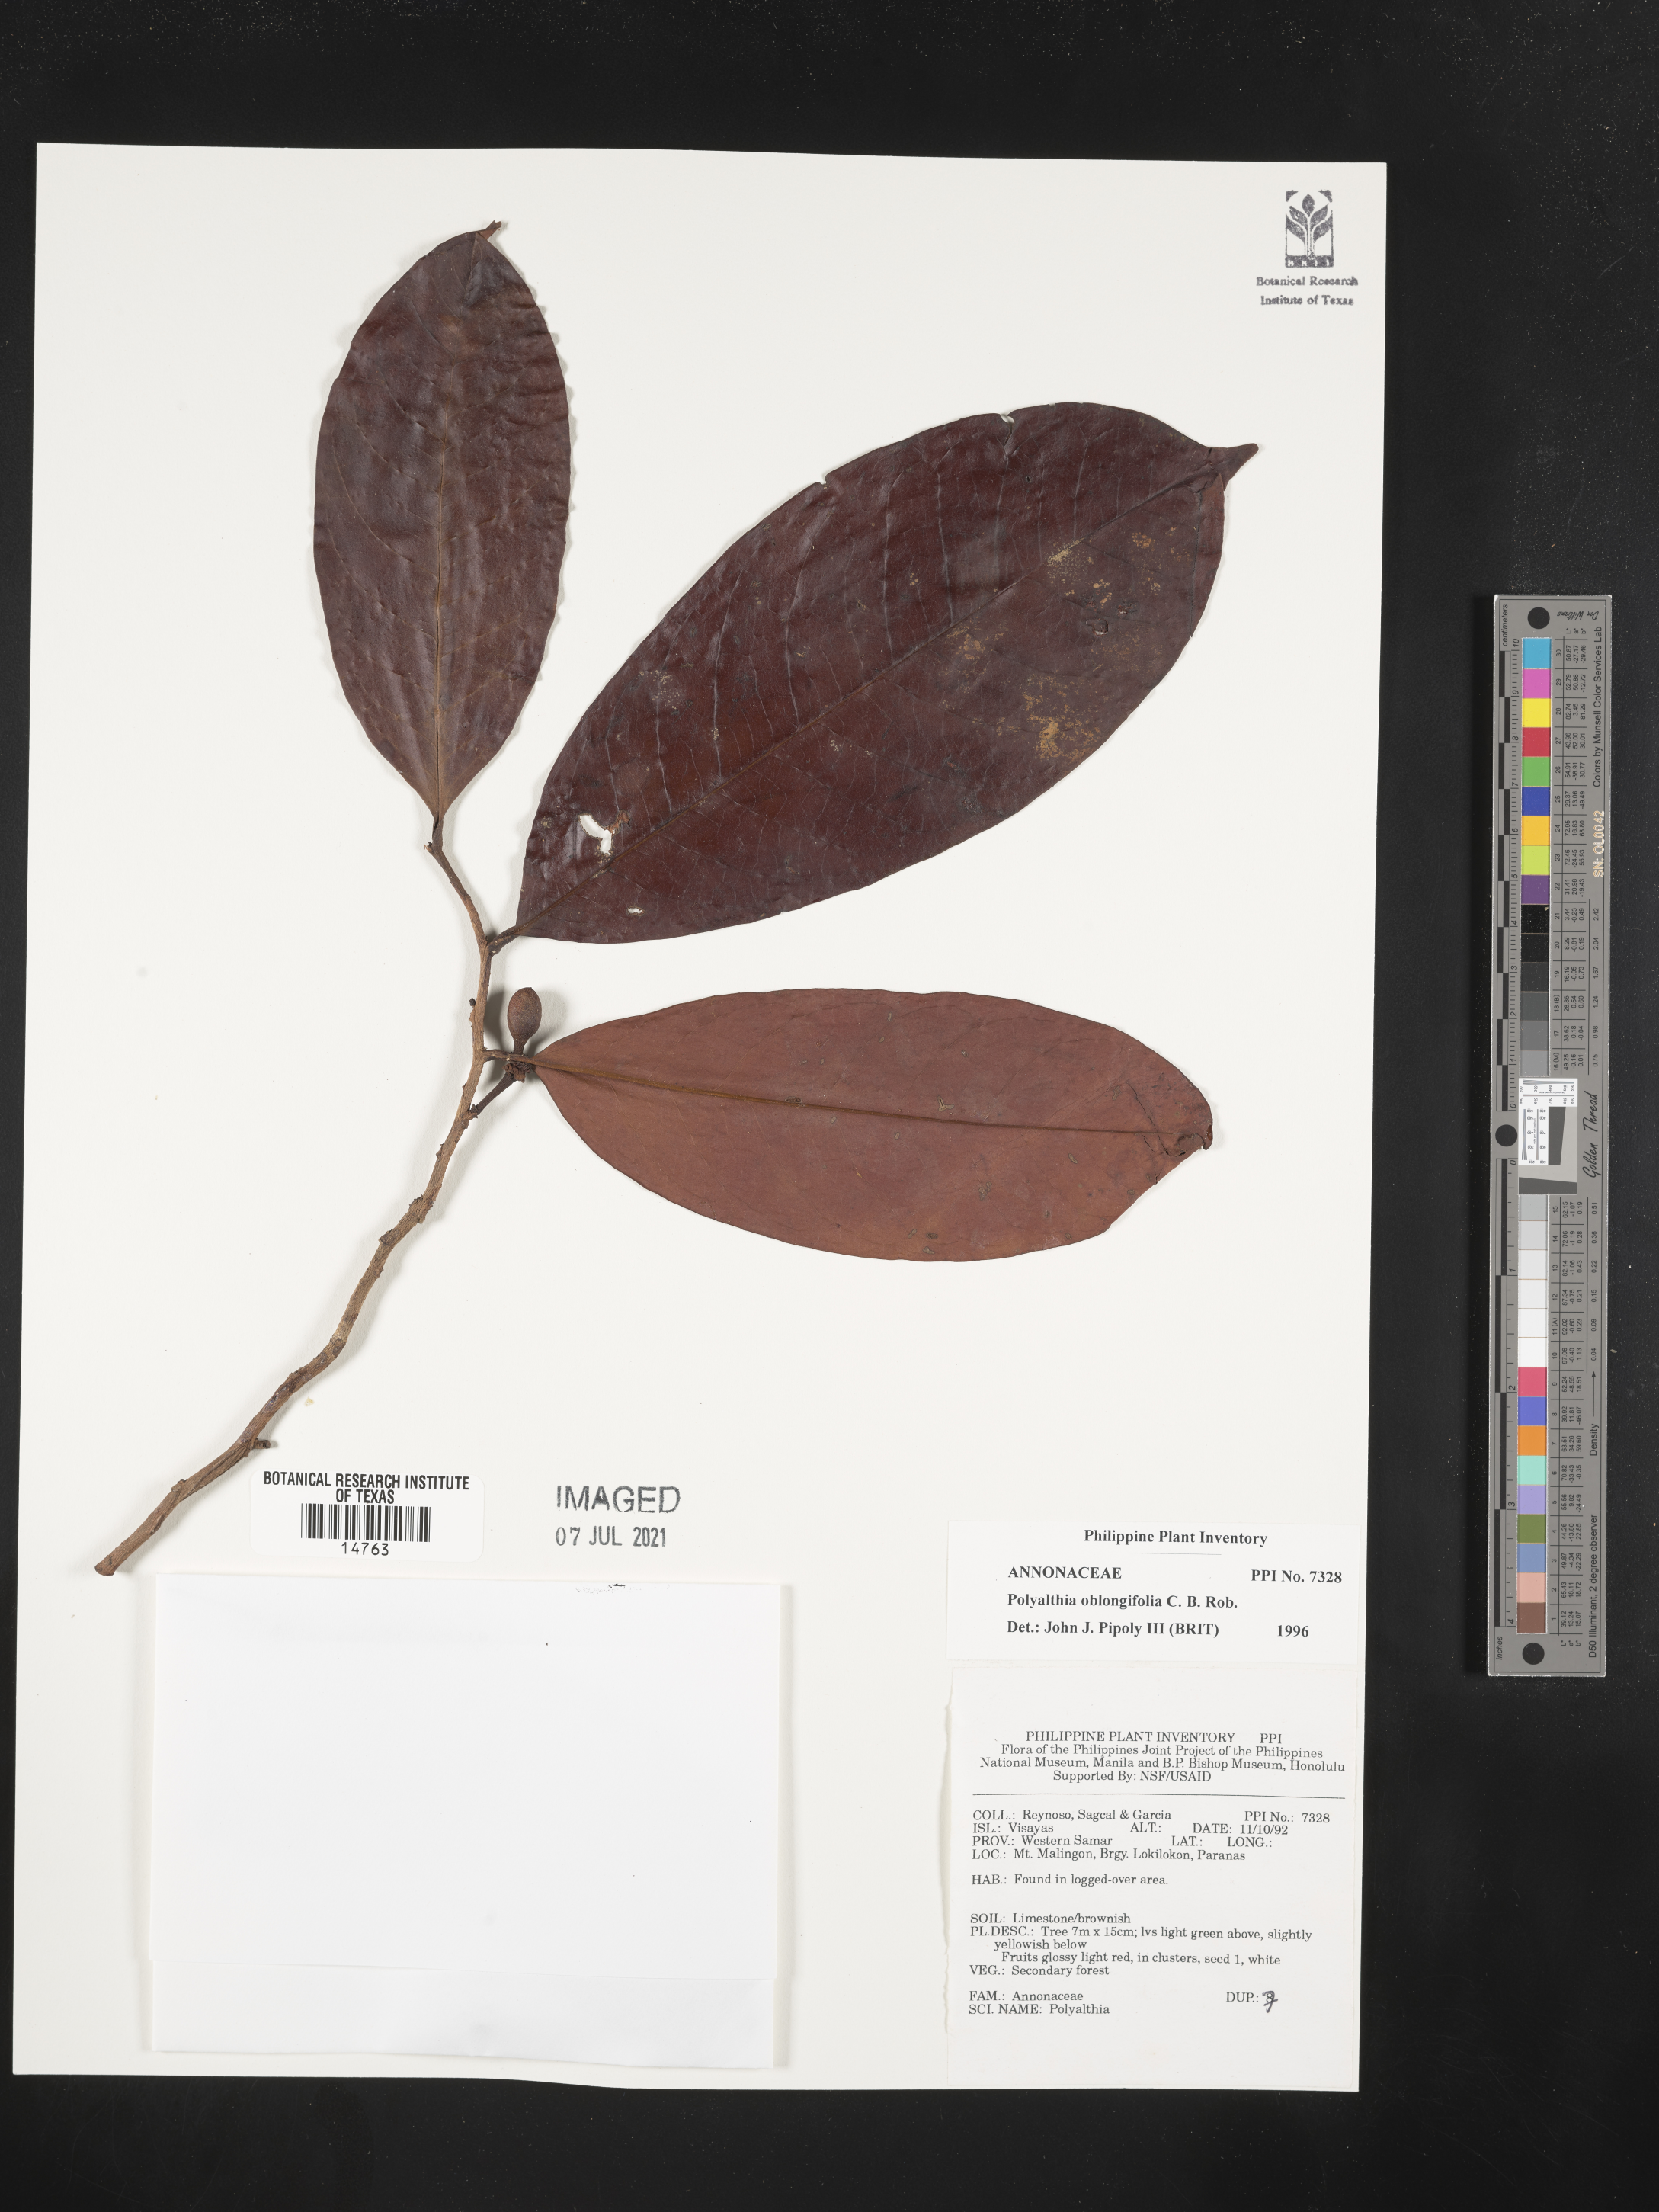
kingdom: Plantae
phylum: Tracheophyta
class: Magnoliopsida
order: Magnoliales
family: Annonaceae
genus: Polyalthia
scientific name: Polyalthia oblongifolia
